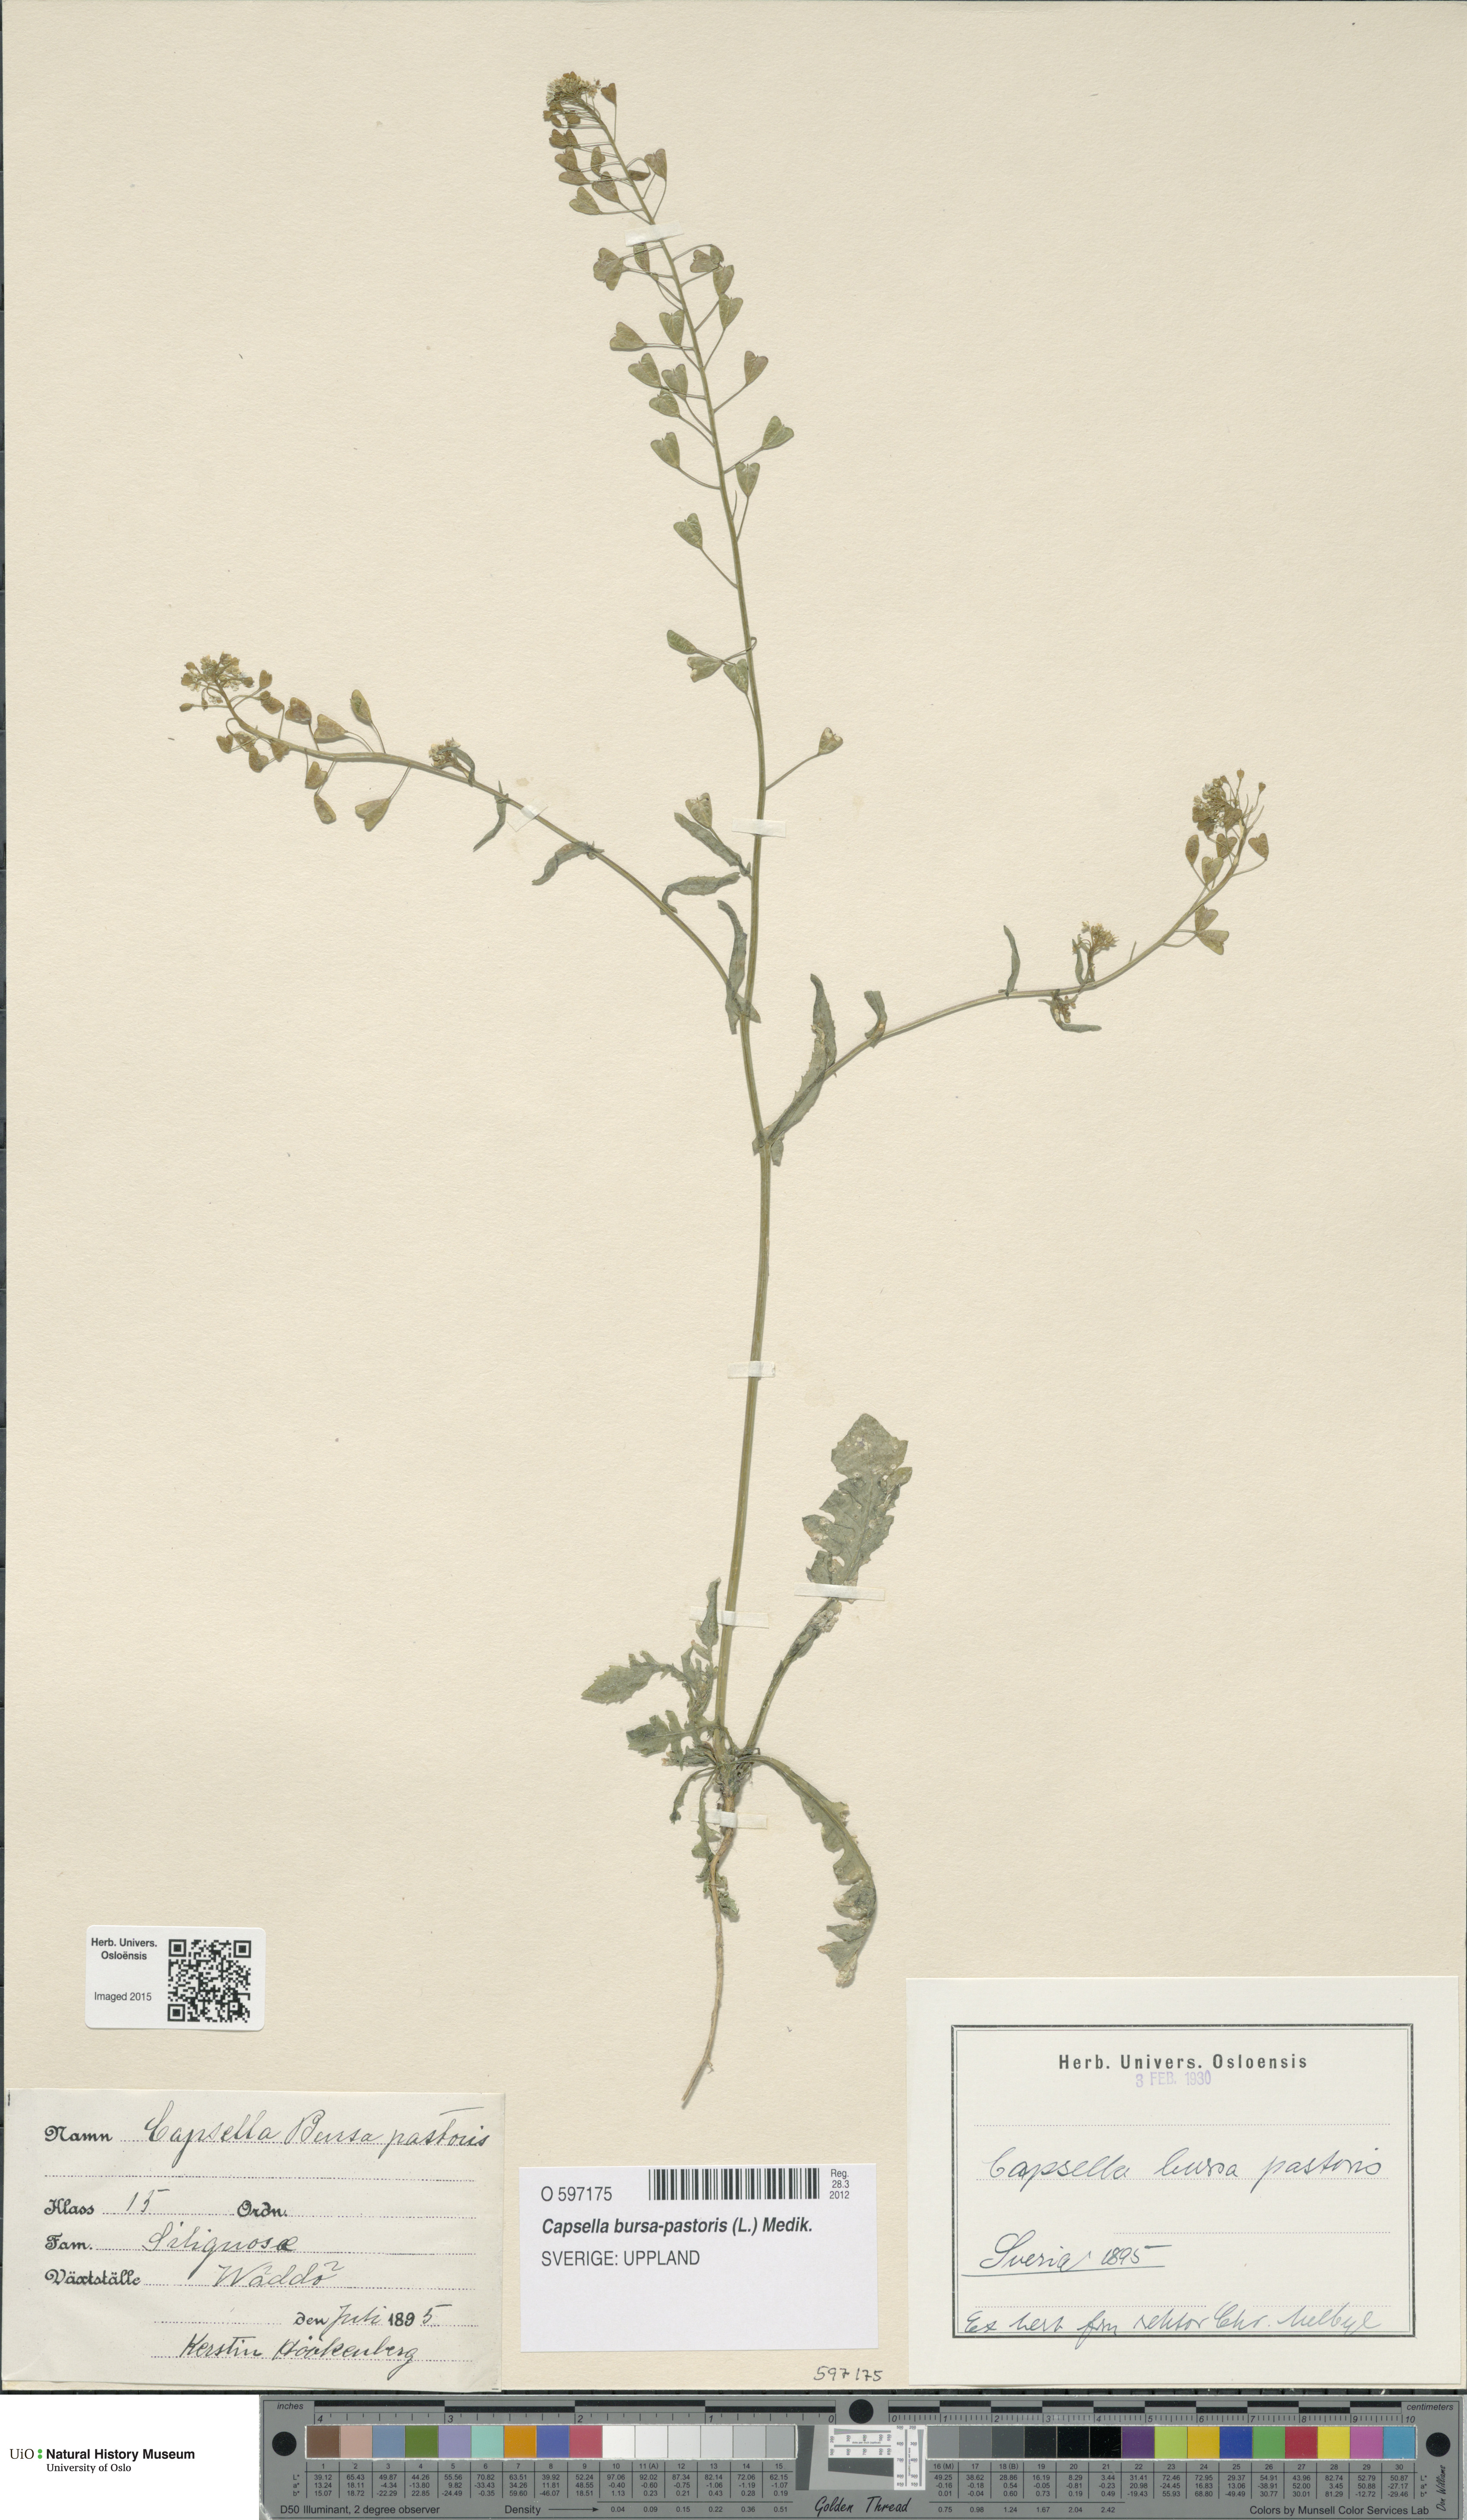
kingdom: Plantae
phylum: Tracheophyta
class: Magnoliopsida
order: Brassicales
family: Brassicaceae
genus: Capsella
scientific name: Capsella bursa-pastoris
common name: Shepherd's purse
